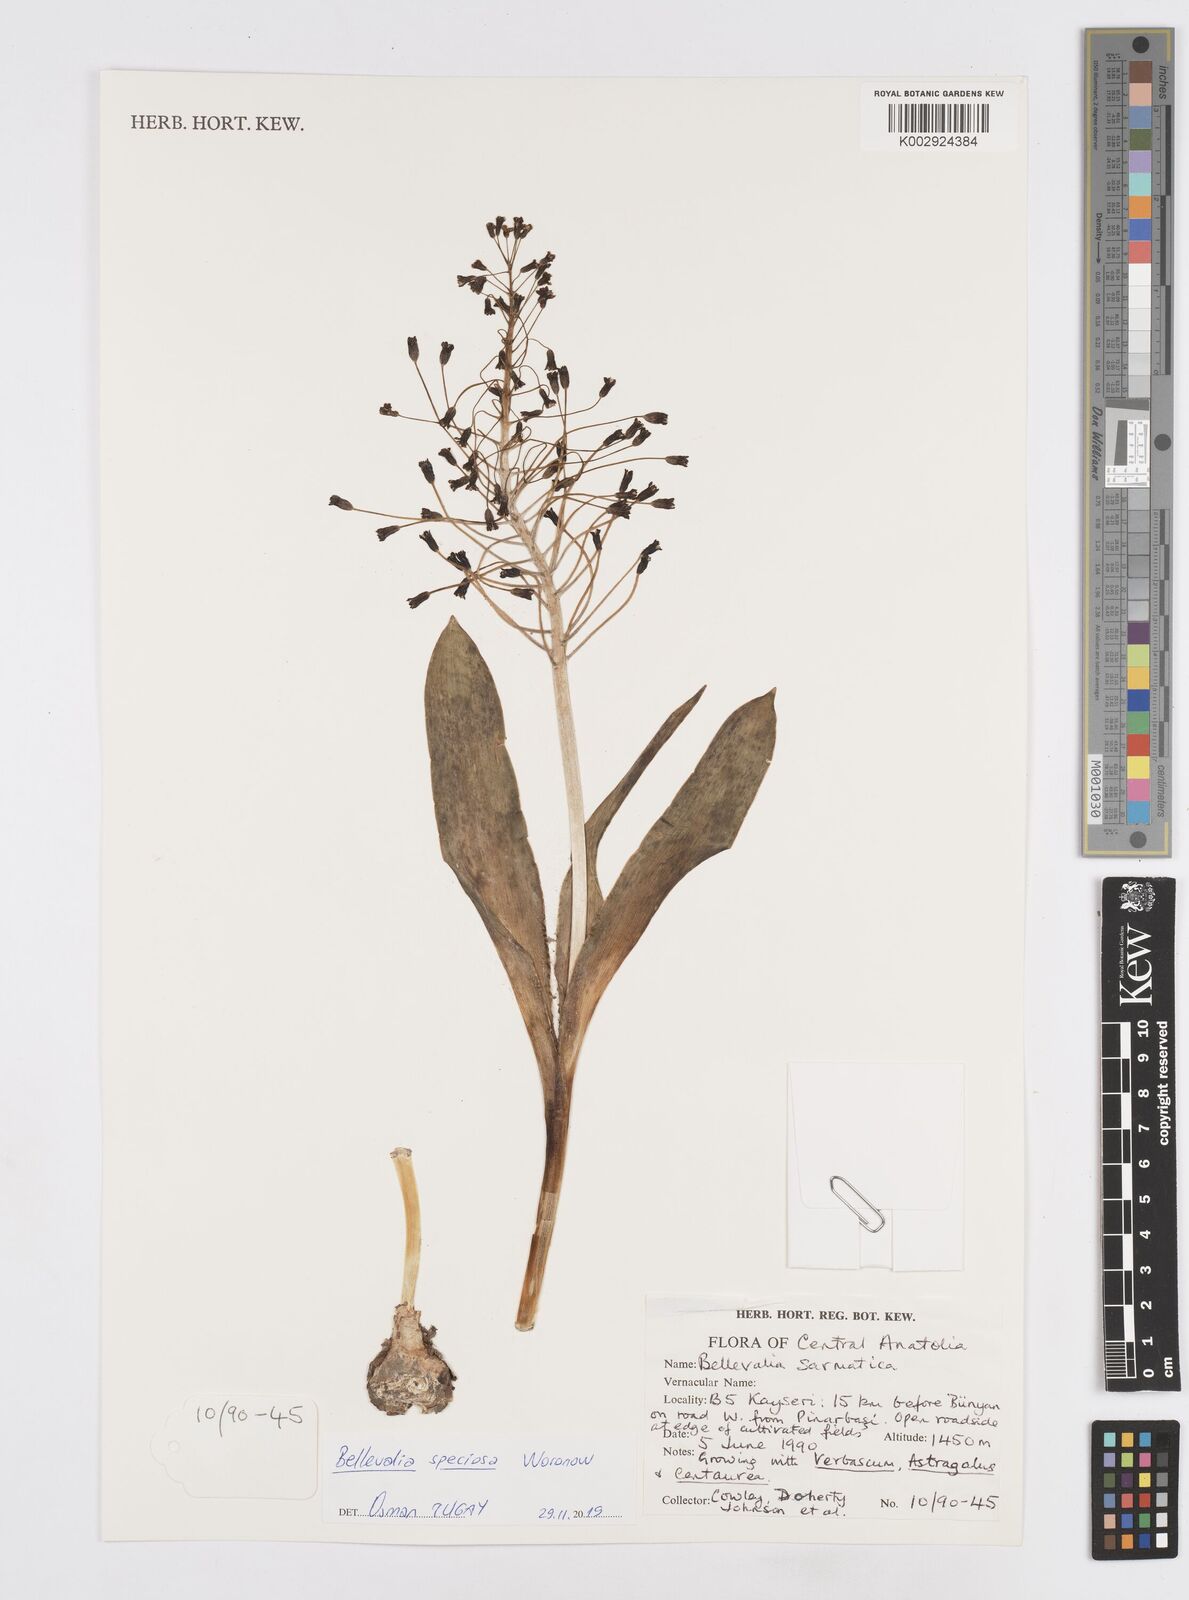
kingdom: Plantae
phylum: Tracheophyta
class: Liliopsida
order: Asparagales
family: Asparagaceae
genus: Bellevalia
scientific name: Bellevalia speciosa
